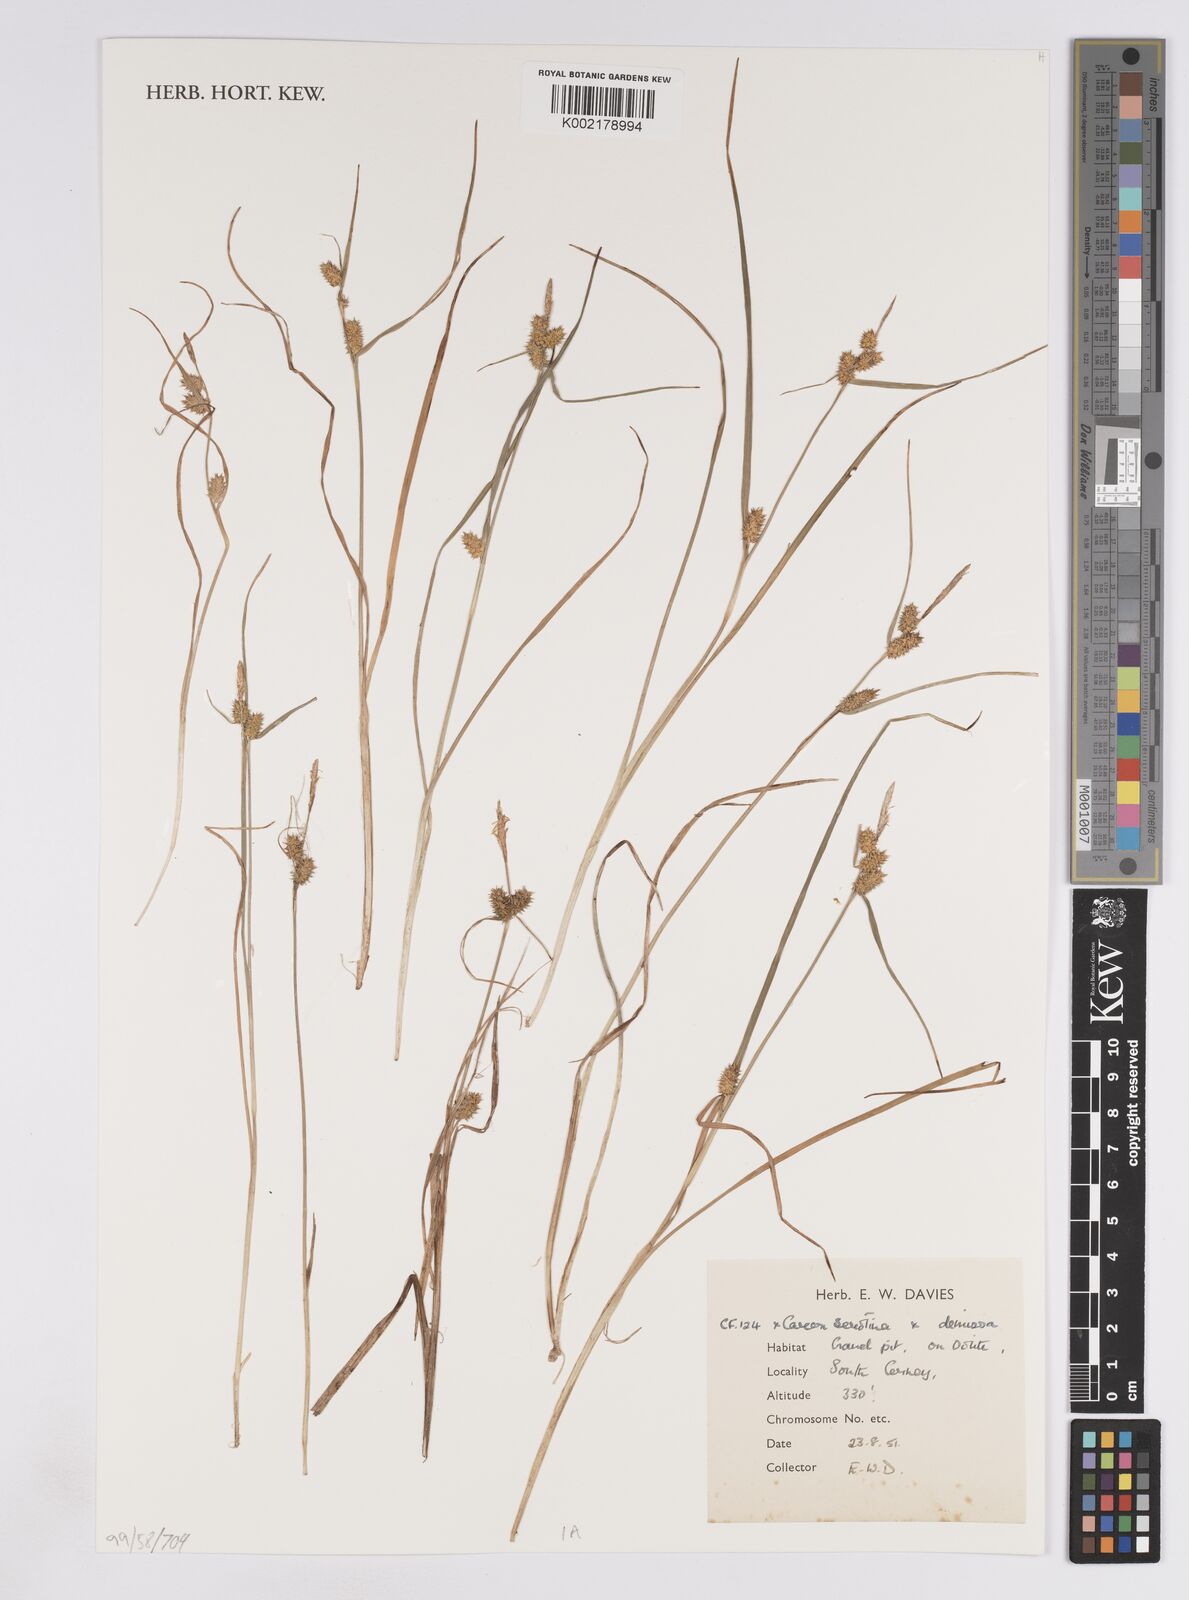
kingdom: Plantae
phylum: Tracheophyta
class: Liliopsida
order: Poales
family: Cyperaceae
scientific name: Cyperaceae
